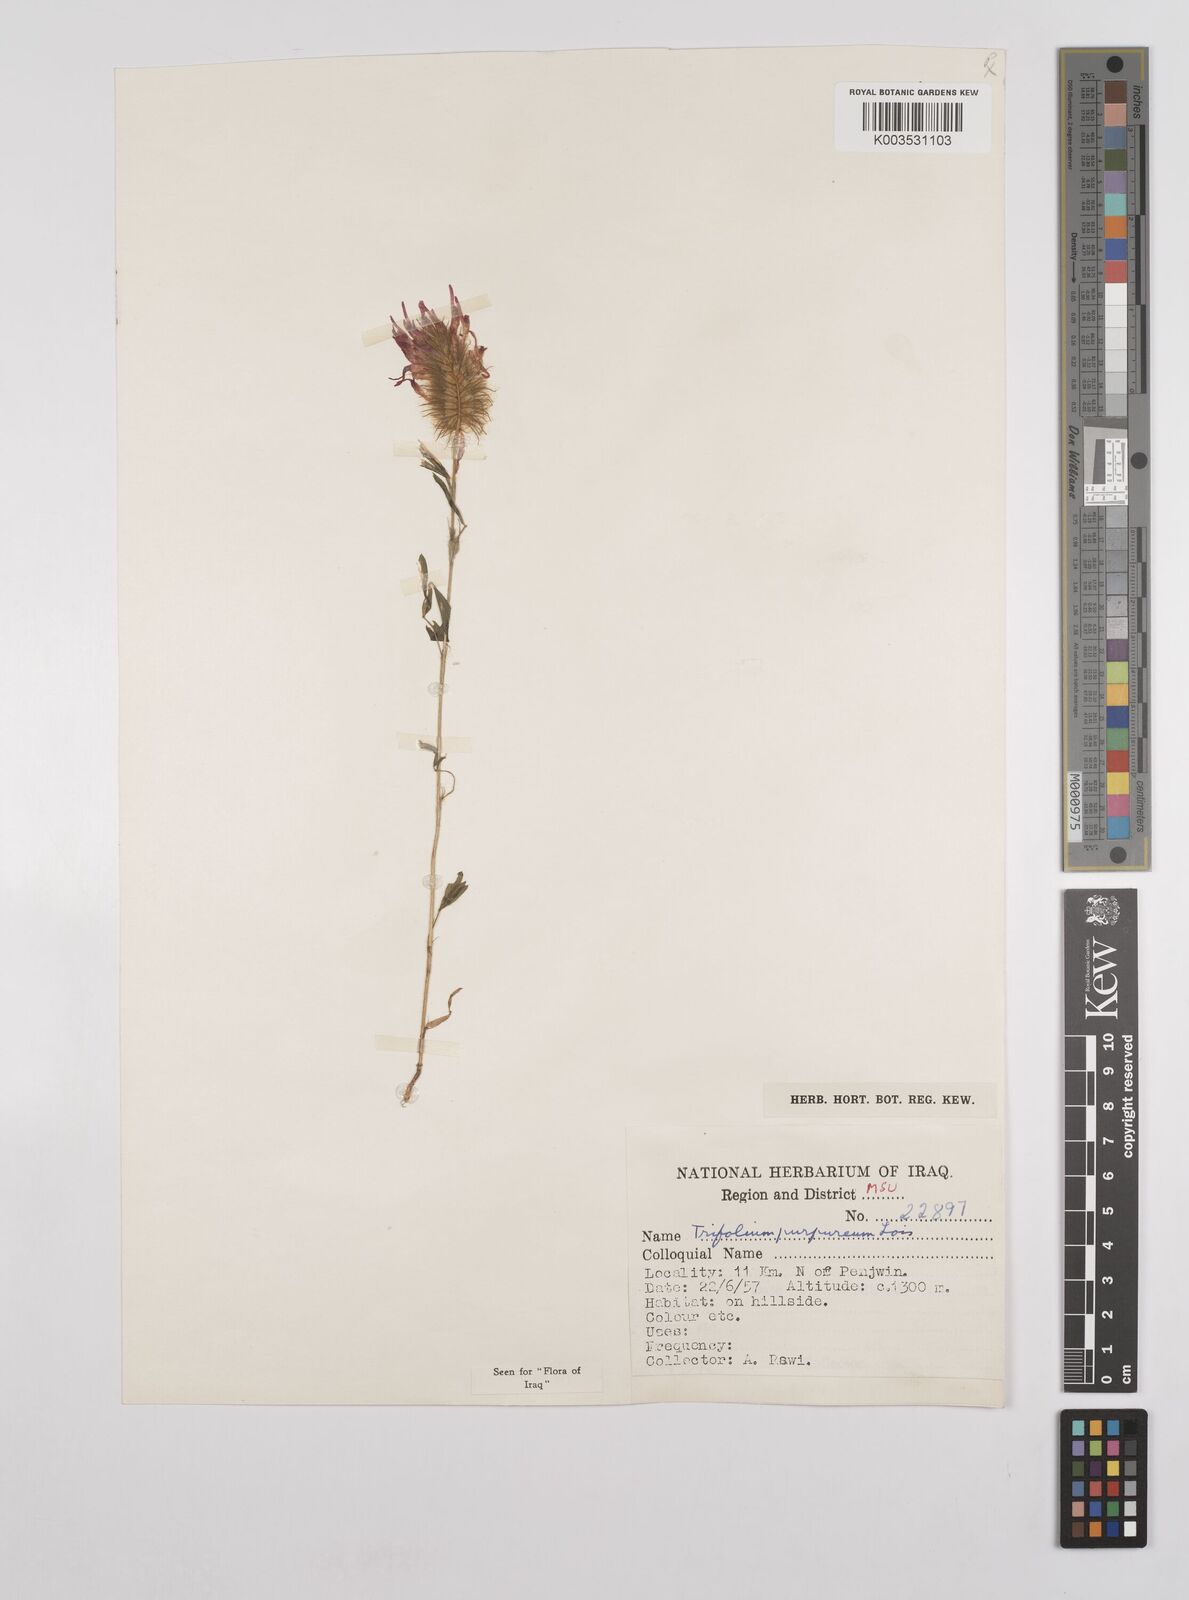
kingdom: Plantae
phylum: Tracheophyta
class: Magnoliopsida
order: Fabales
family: Fabaceae
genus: Trifolium
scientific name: Trifolium purpureum
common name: Purple clover
